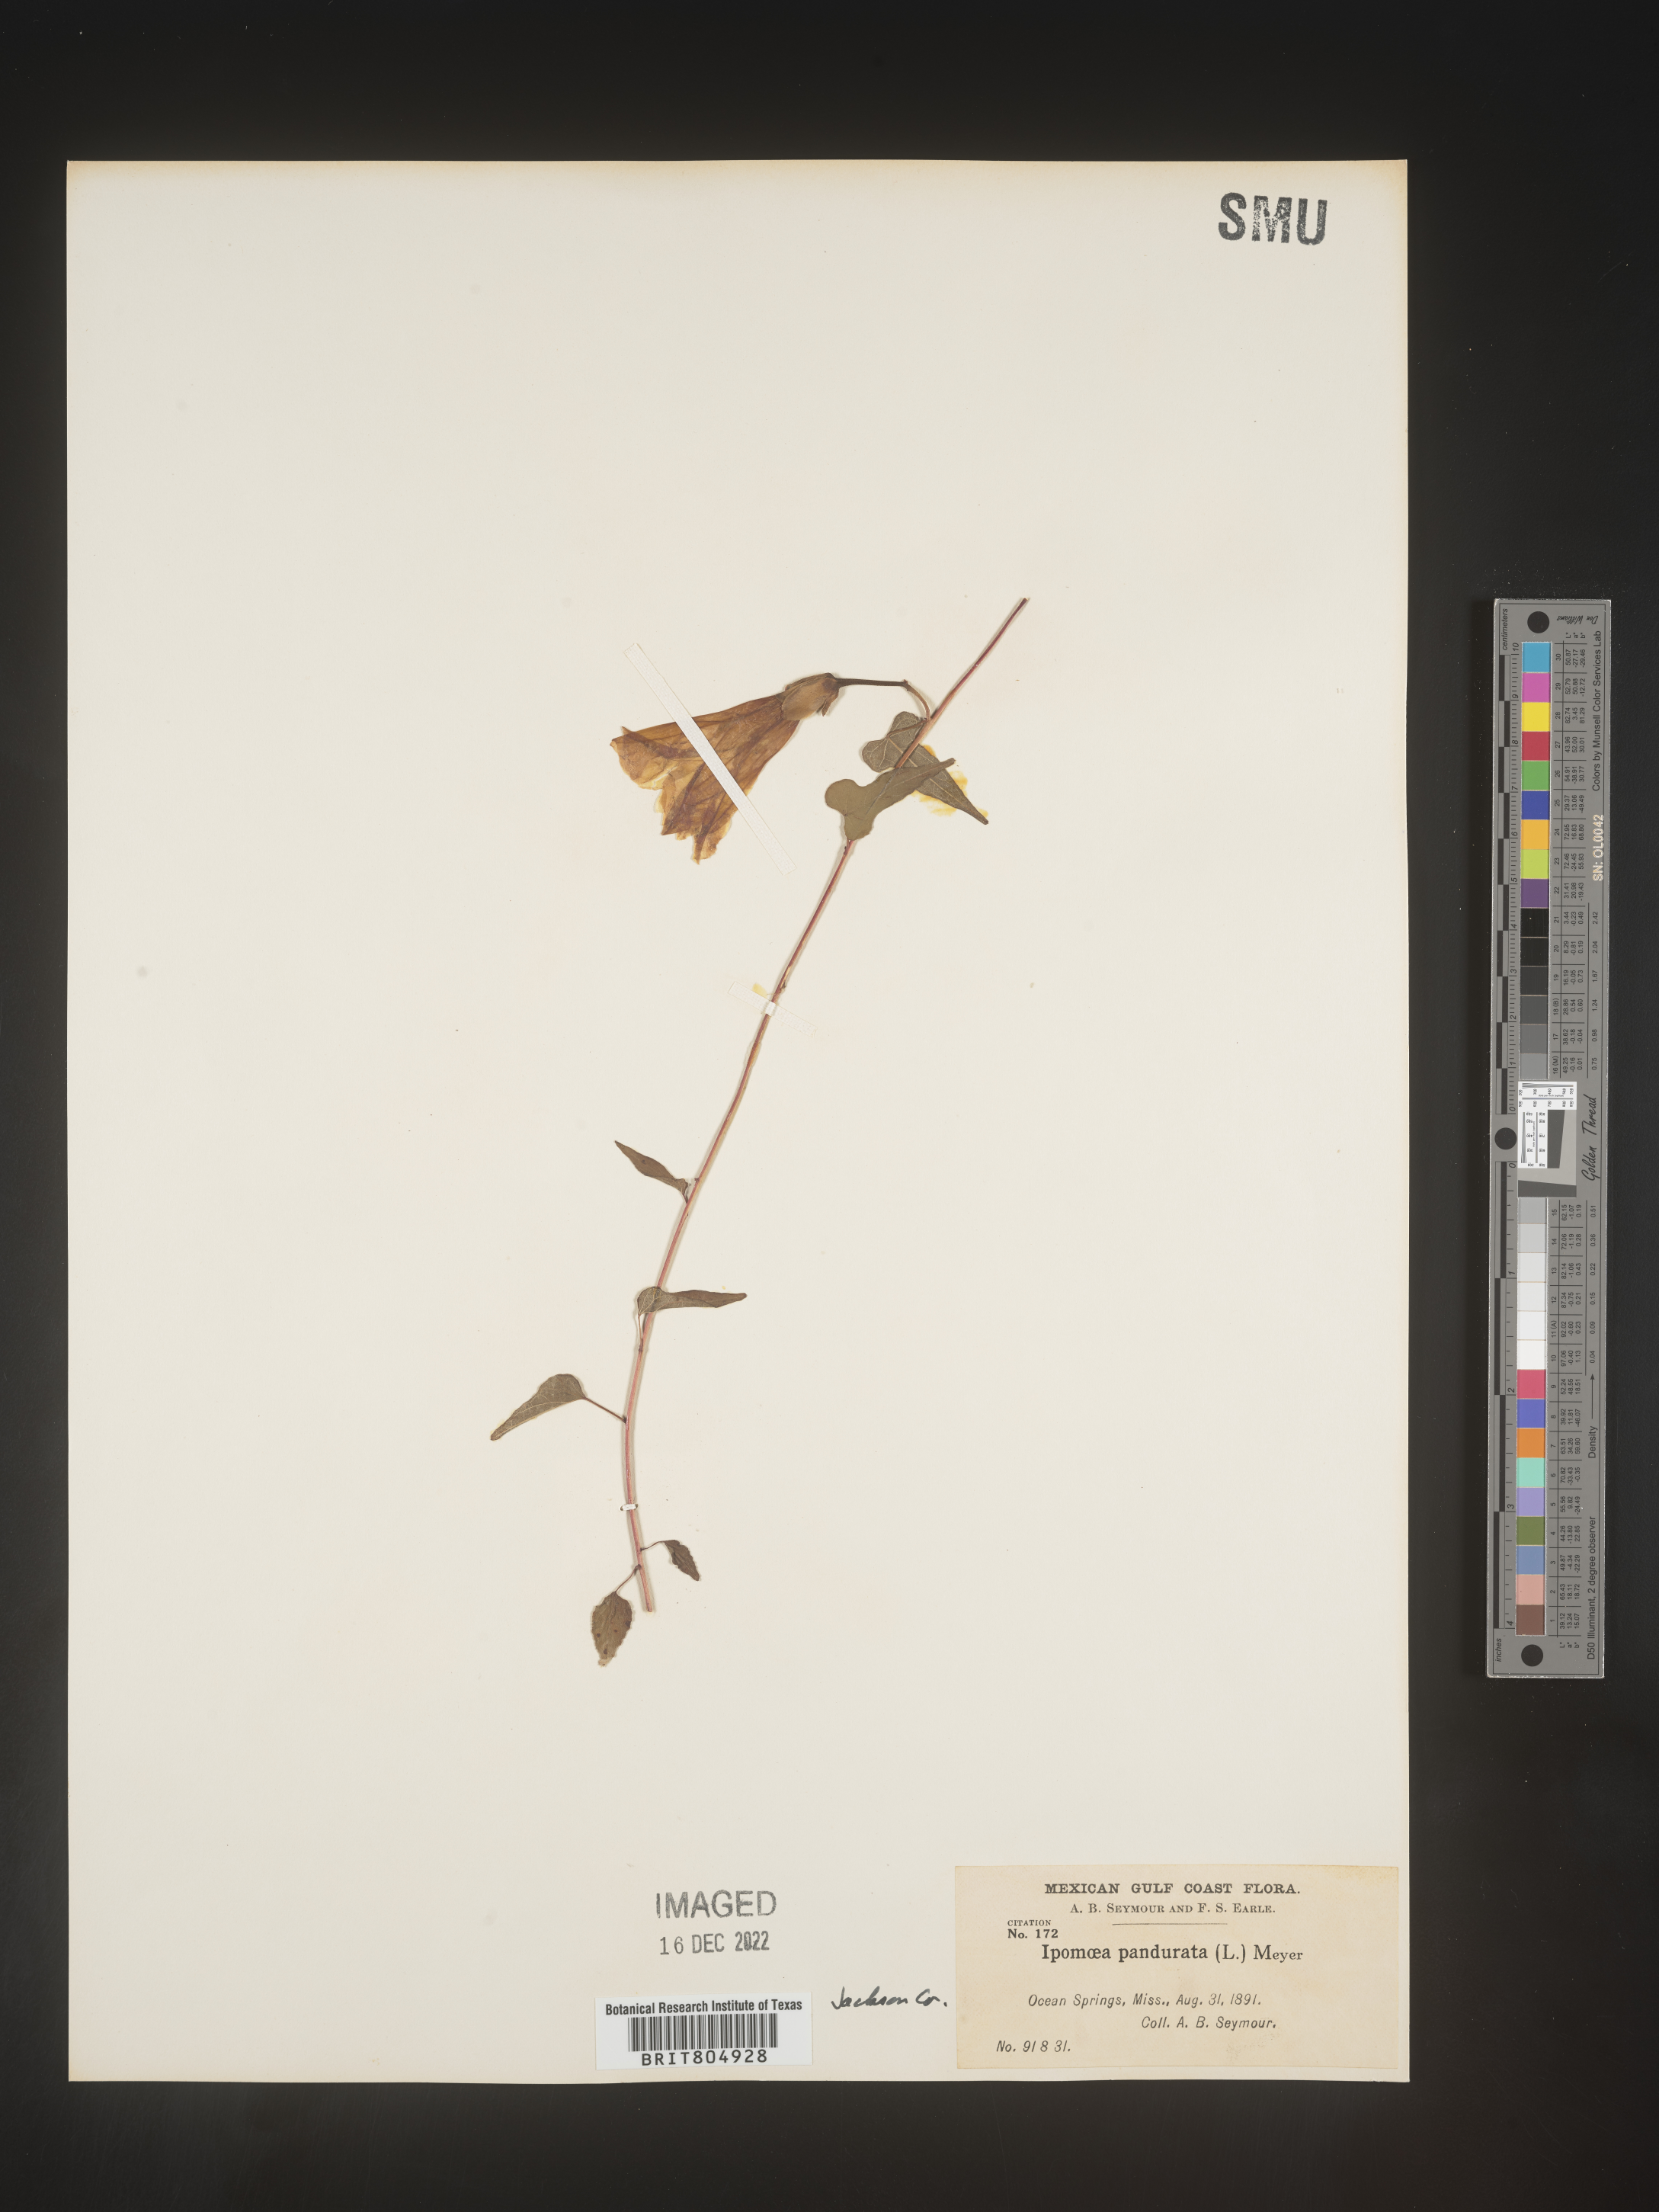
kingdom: Plantae
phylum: Tracheophyta
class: Magnoliopsida
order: Solanales
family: Convolvulaceae
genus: Ipomoea
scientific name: Ipomoea pandurata
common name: Man-of-the-earth
